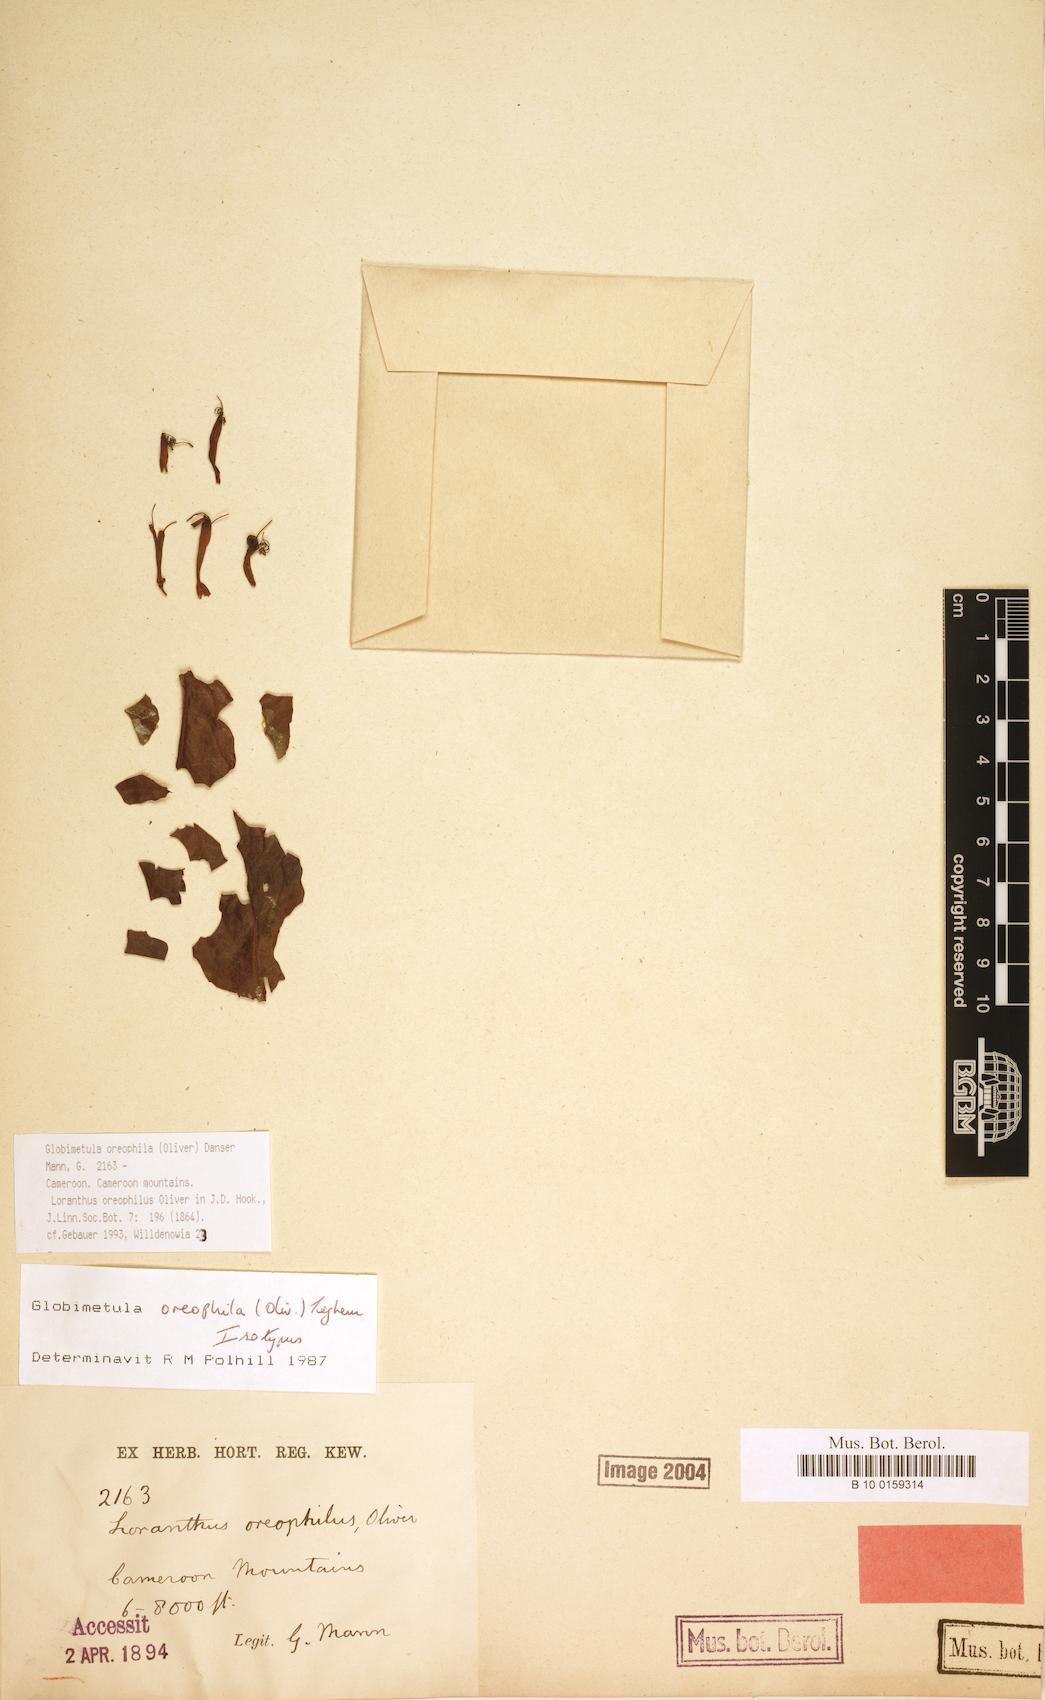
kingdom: Plantae
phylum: Tracheophyta
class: Magnoliopsida
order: Santalales
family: Loranthaceae
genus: Globimetula
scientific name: Globimetula oreophila
